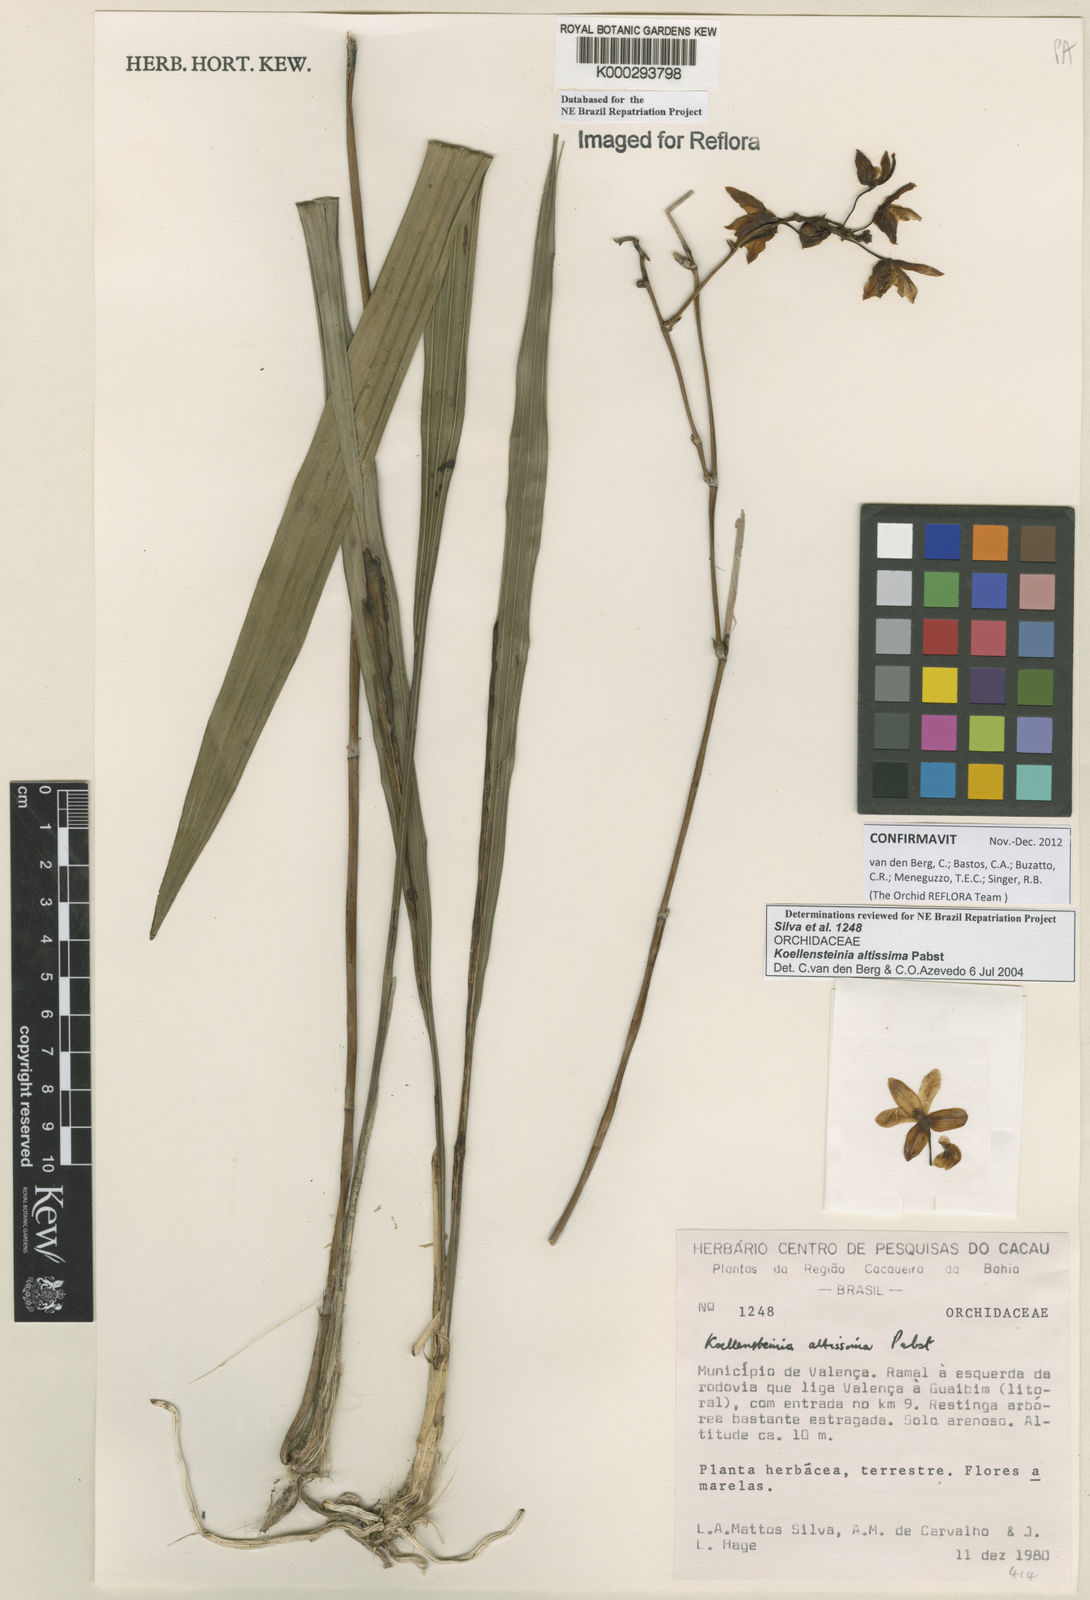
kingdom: Plantae
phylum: Tracheophyta
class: Liliopsida
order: Asparagales
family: Orchidaceae
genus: Koellensteinia
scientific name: Koellensteinia florida
